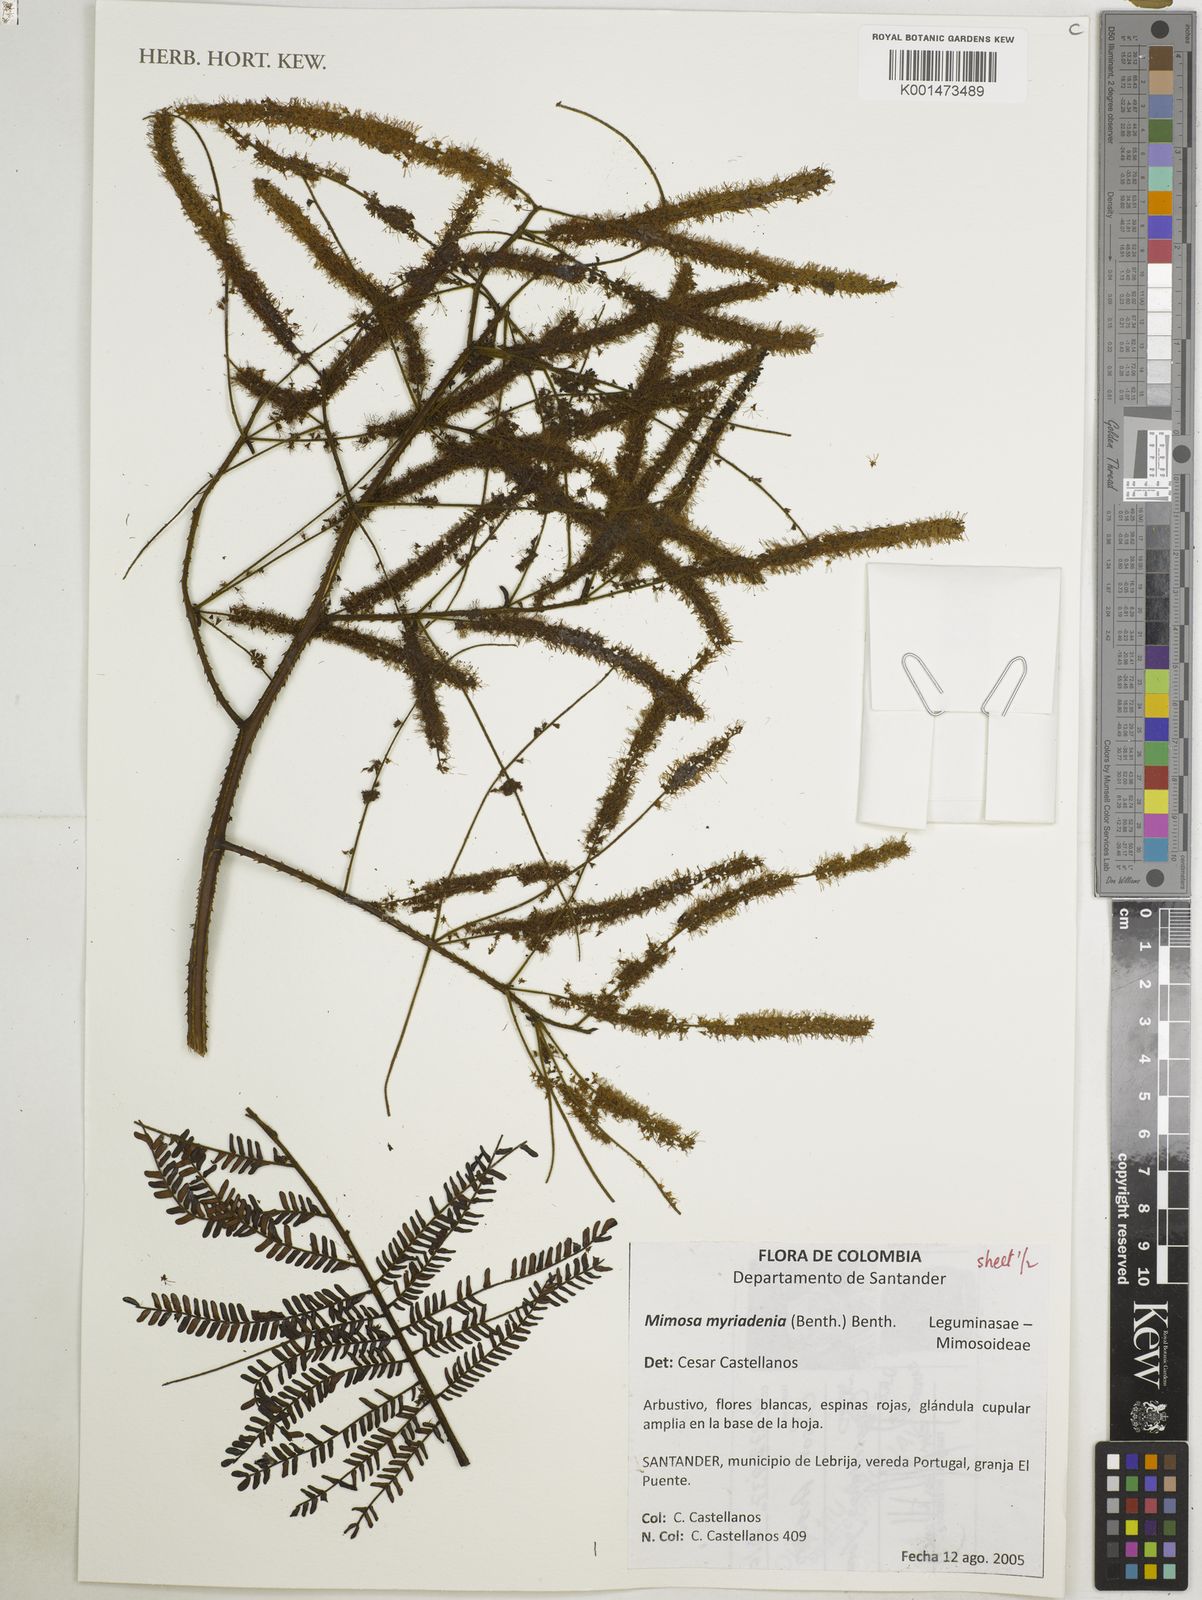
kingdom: Plantae
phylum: Tracheophyta
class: Magnoliopsida
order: Fabales
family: Fabaceae
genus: Mimosa
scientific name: Mimosa myriadenia
